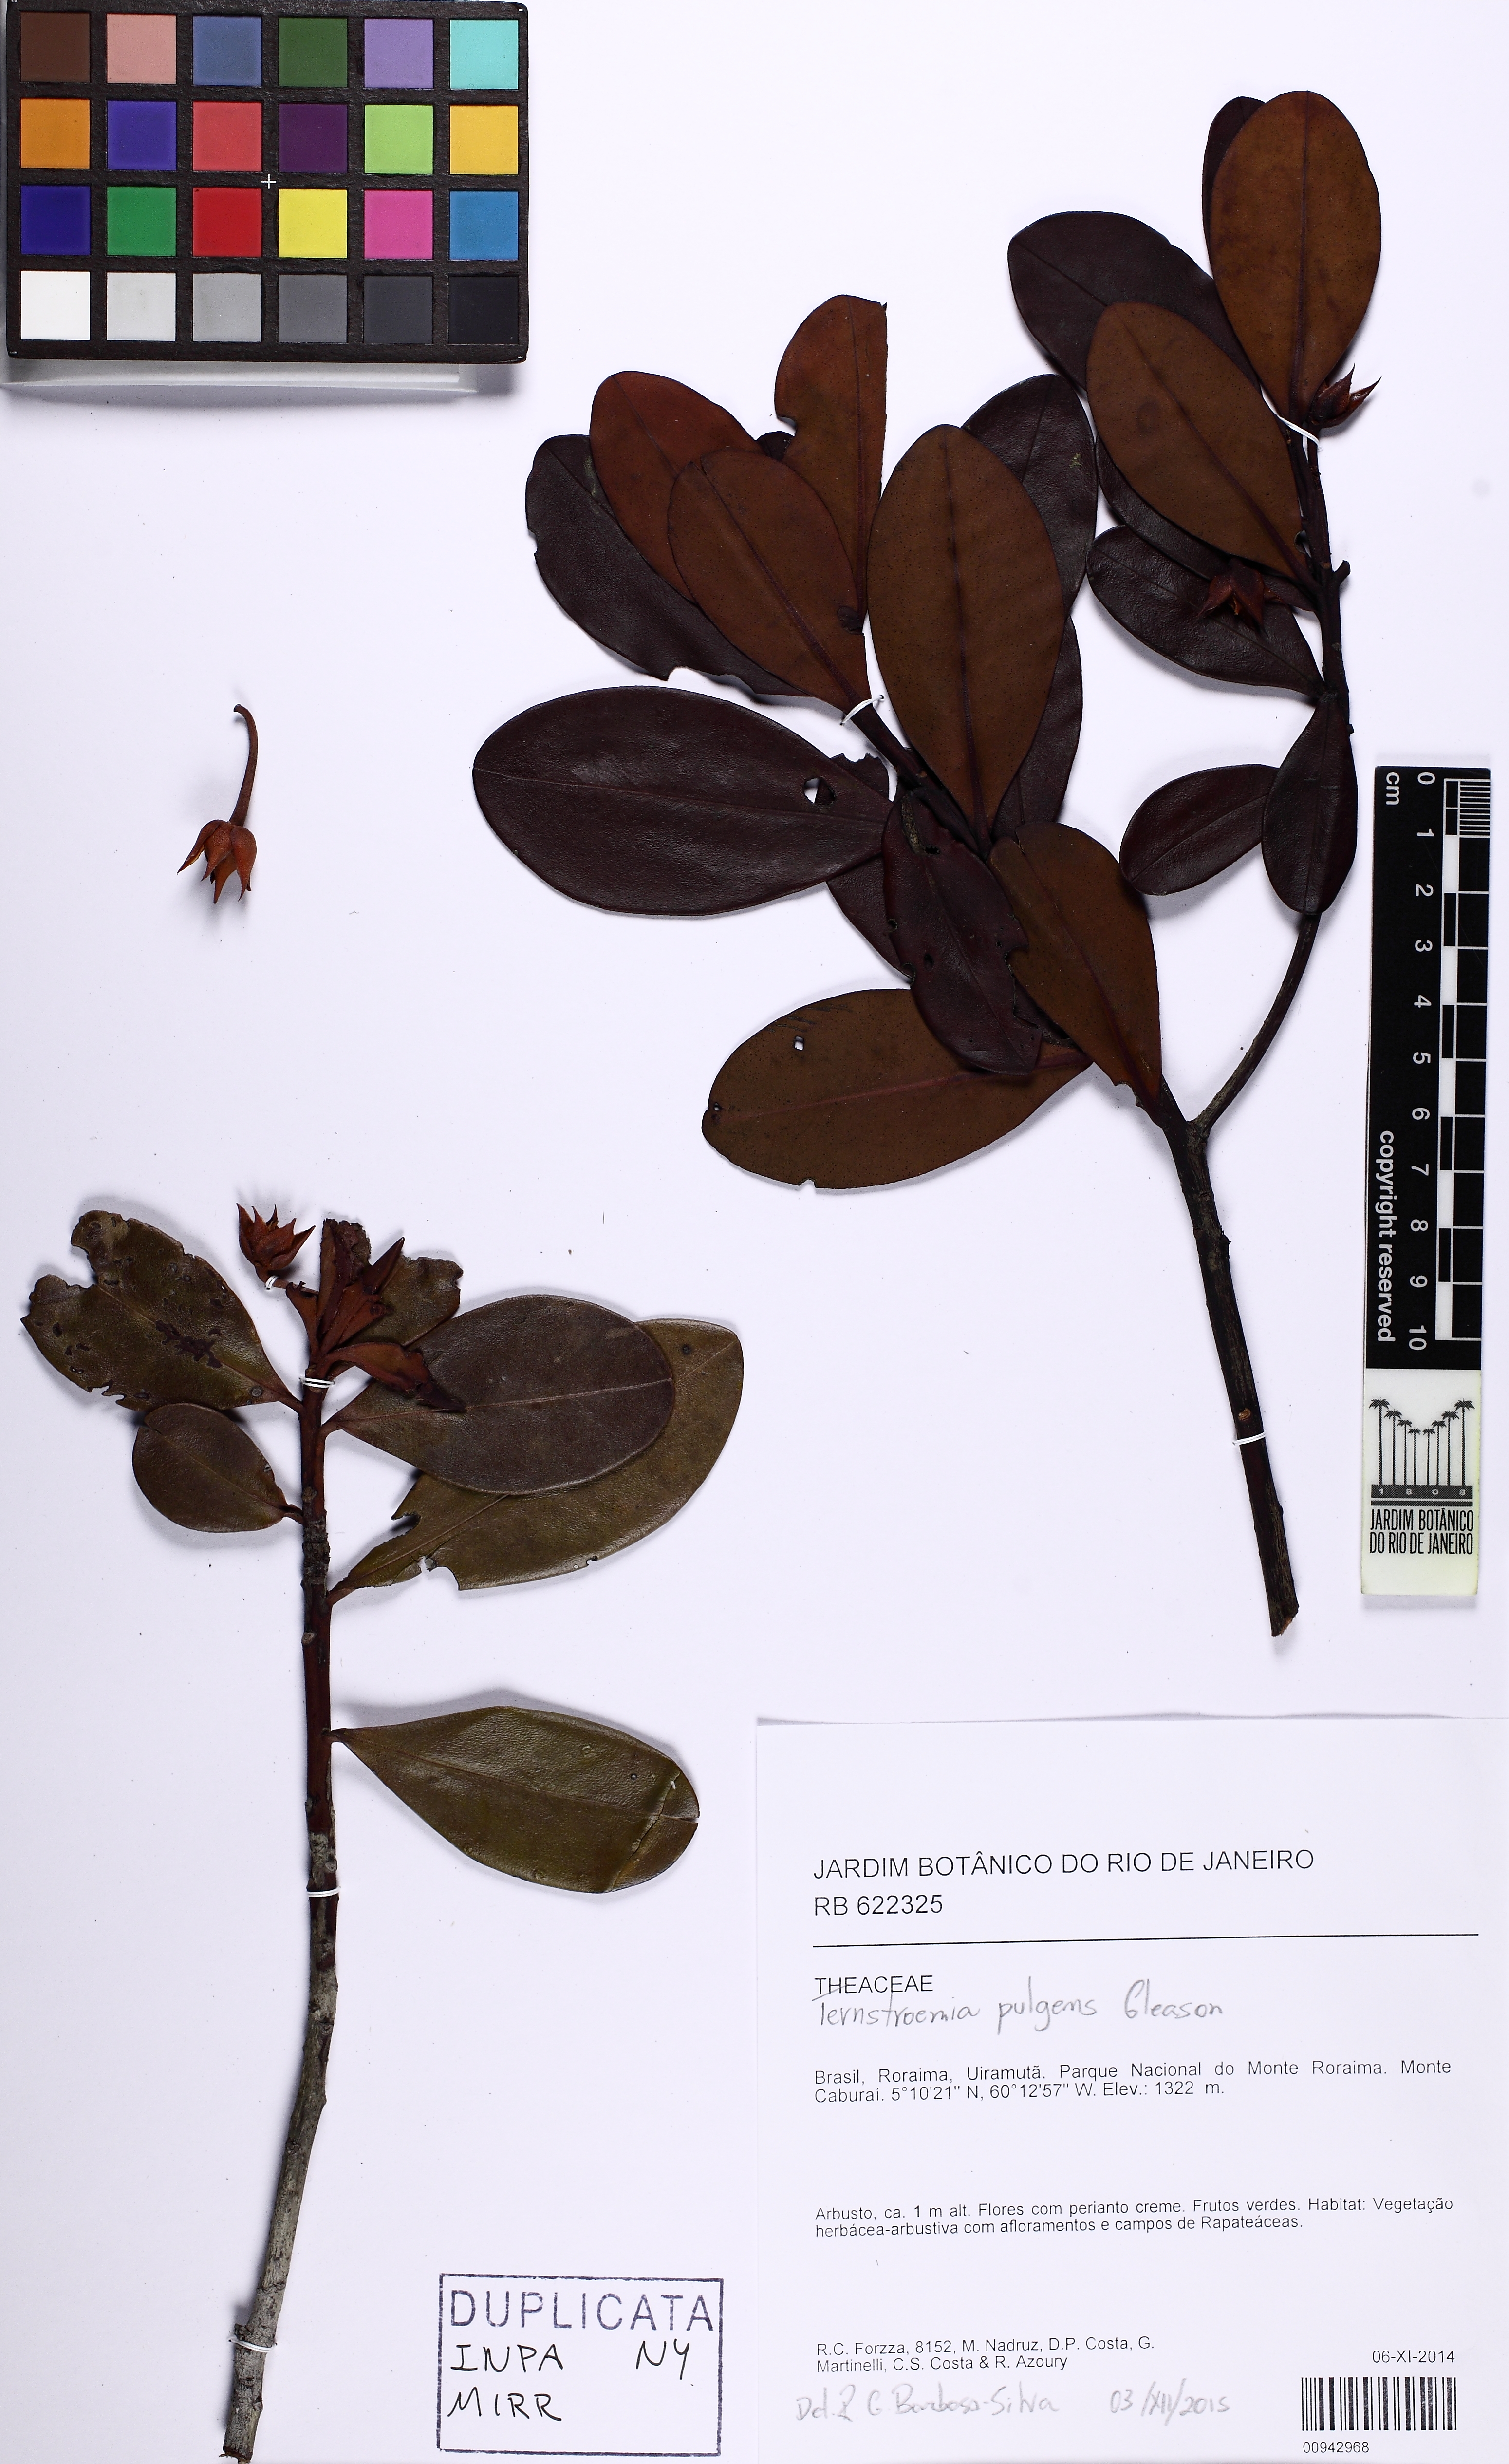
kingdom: Plantae
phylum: Tracheophyta
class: Magnoliopsida
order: Ericales
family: Pentaphylacaceae
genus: Ternstroemia
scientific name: Ternstroemia pungens
